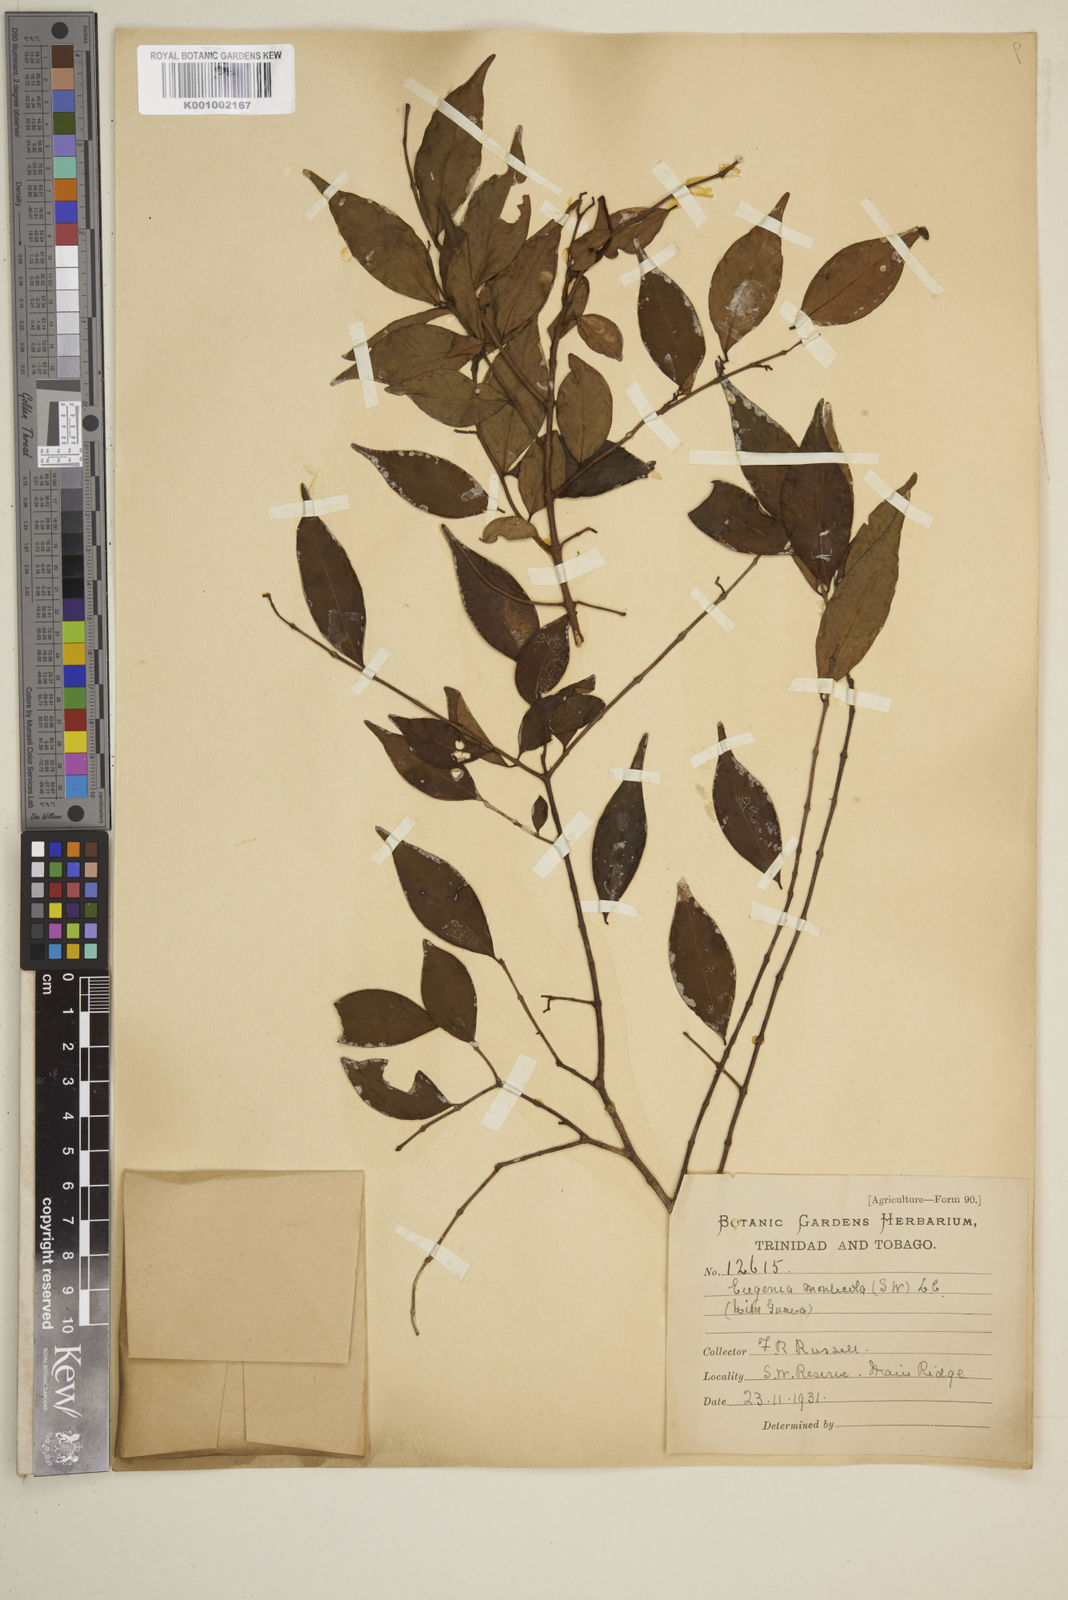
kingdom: Plantae
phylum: Tracheophyta
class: Magnoliopsida
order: Myrtales
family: Myrtaceae
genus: Eugenia
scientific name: Eugenia monticola
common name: Birds berry
